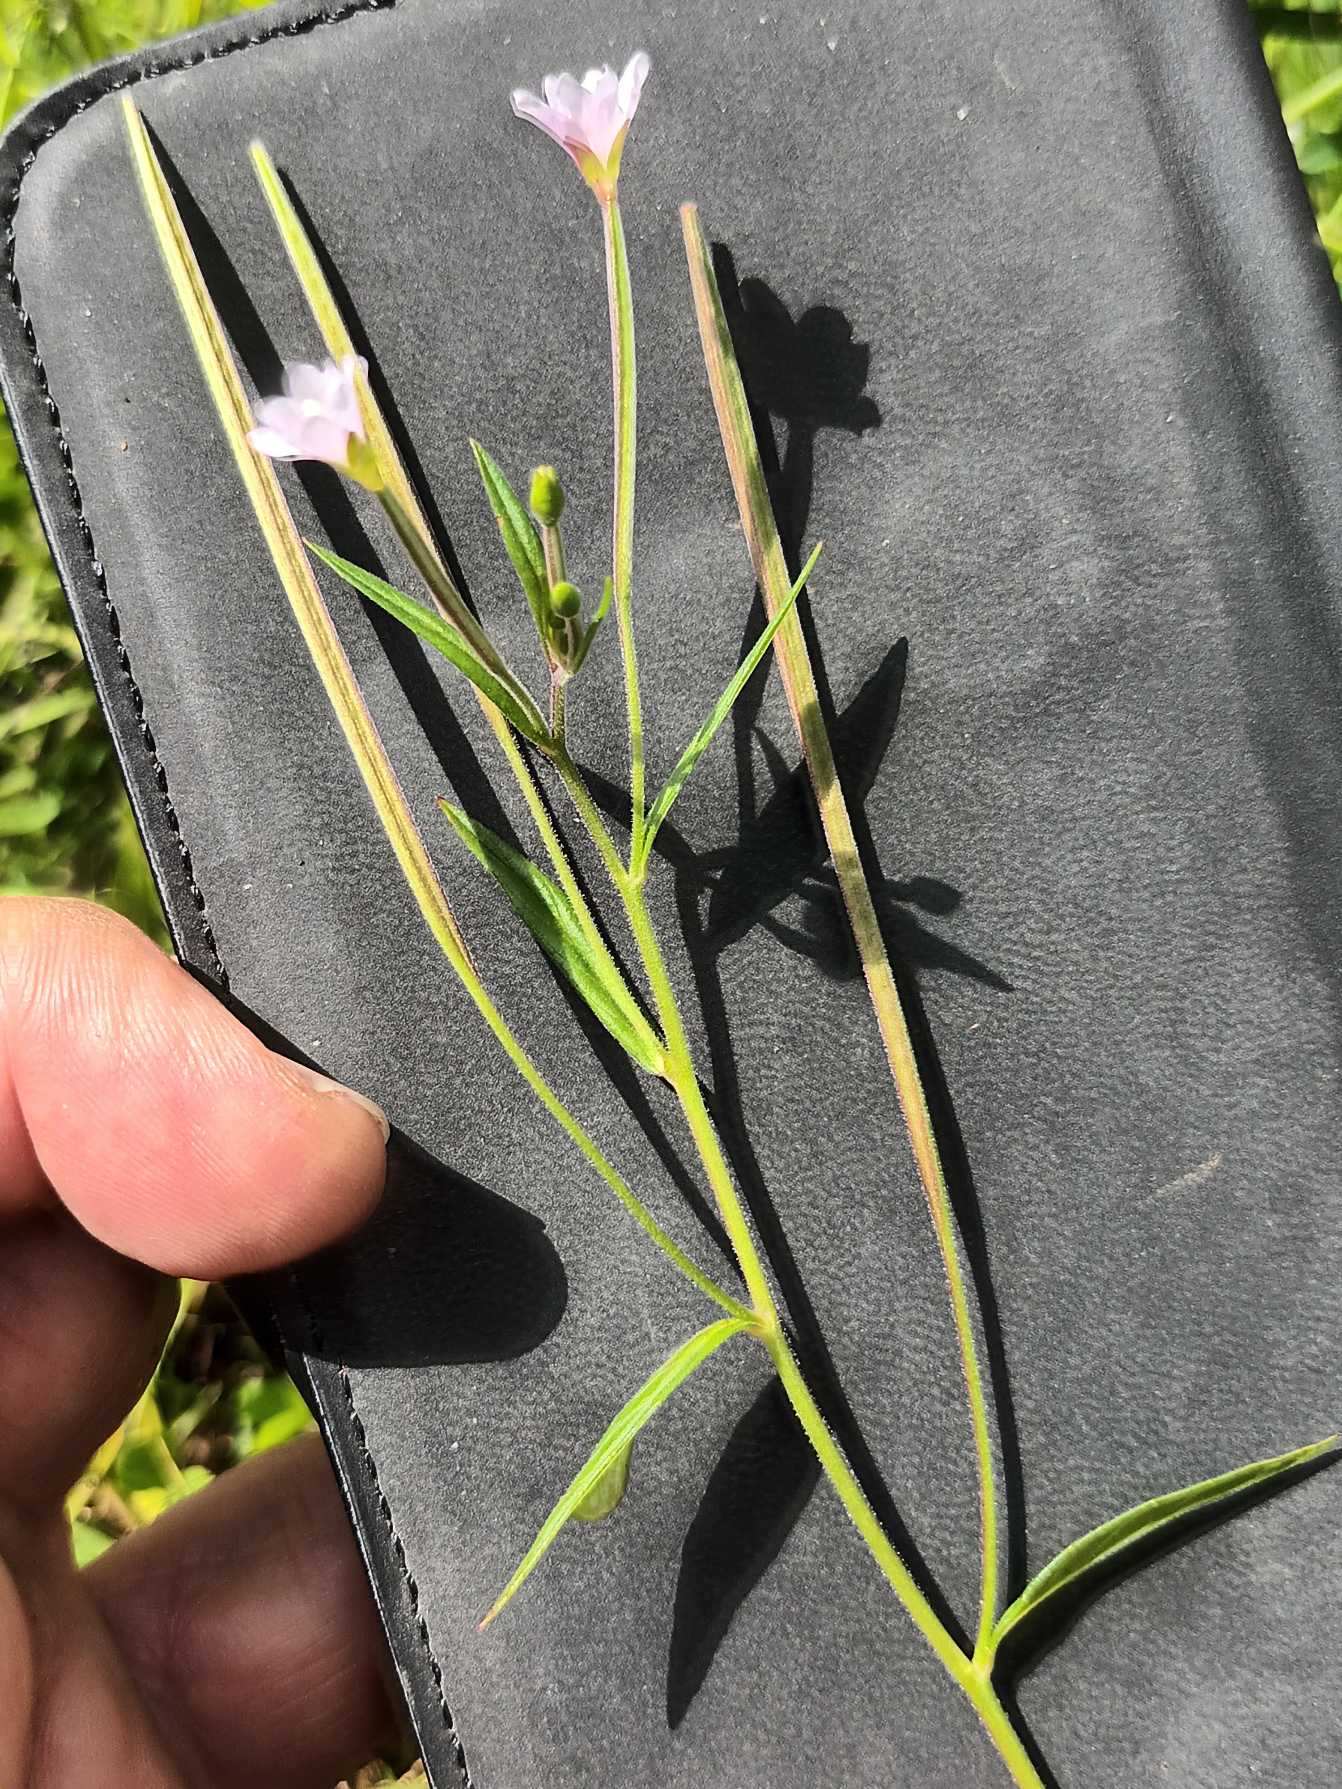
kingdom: Plantae
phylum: Tracheophyta
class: Magnoliopsida
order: Myrtales
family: Onagraceae
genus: Epilobium
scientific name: Epilobium palustre
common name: Kær-dueurt
